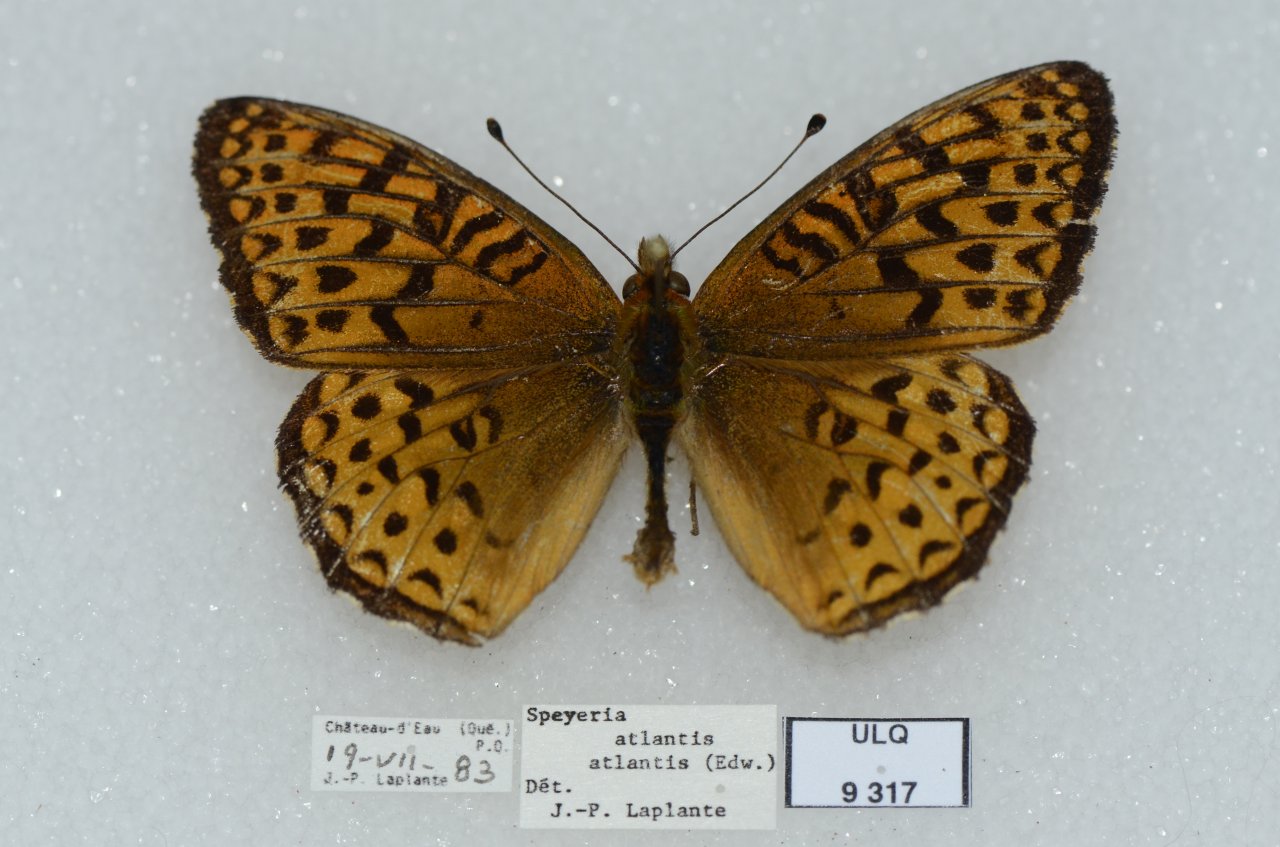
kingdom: Animalia
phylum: Arthropoda
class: Insecta
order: Lepidoptera
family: Nymphalidae
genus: Speyeria
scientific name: Speyeria atlantis
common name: Atlantis Fritillary
